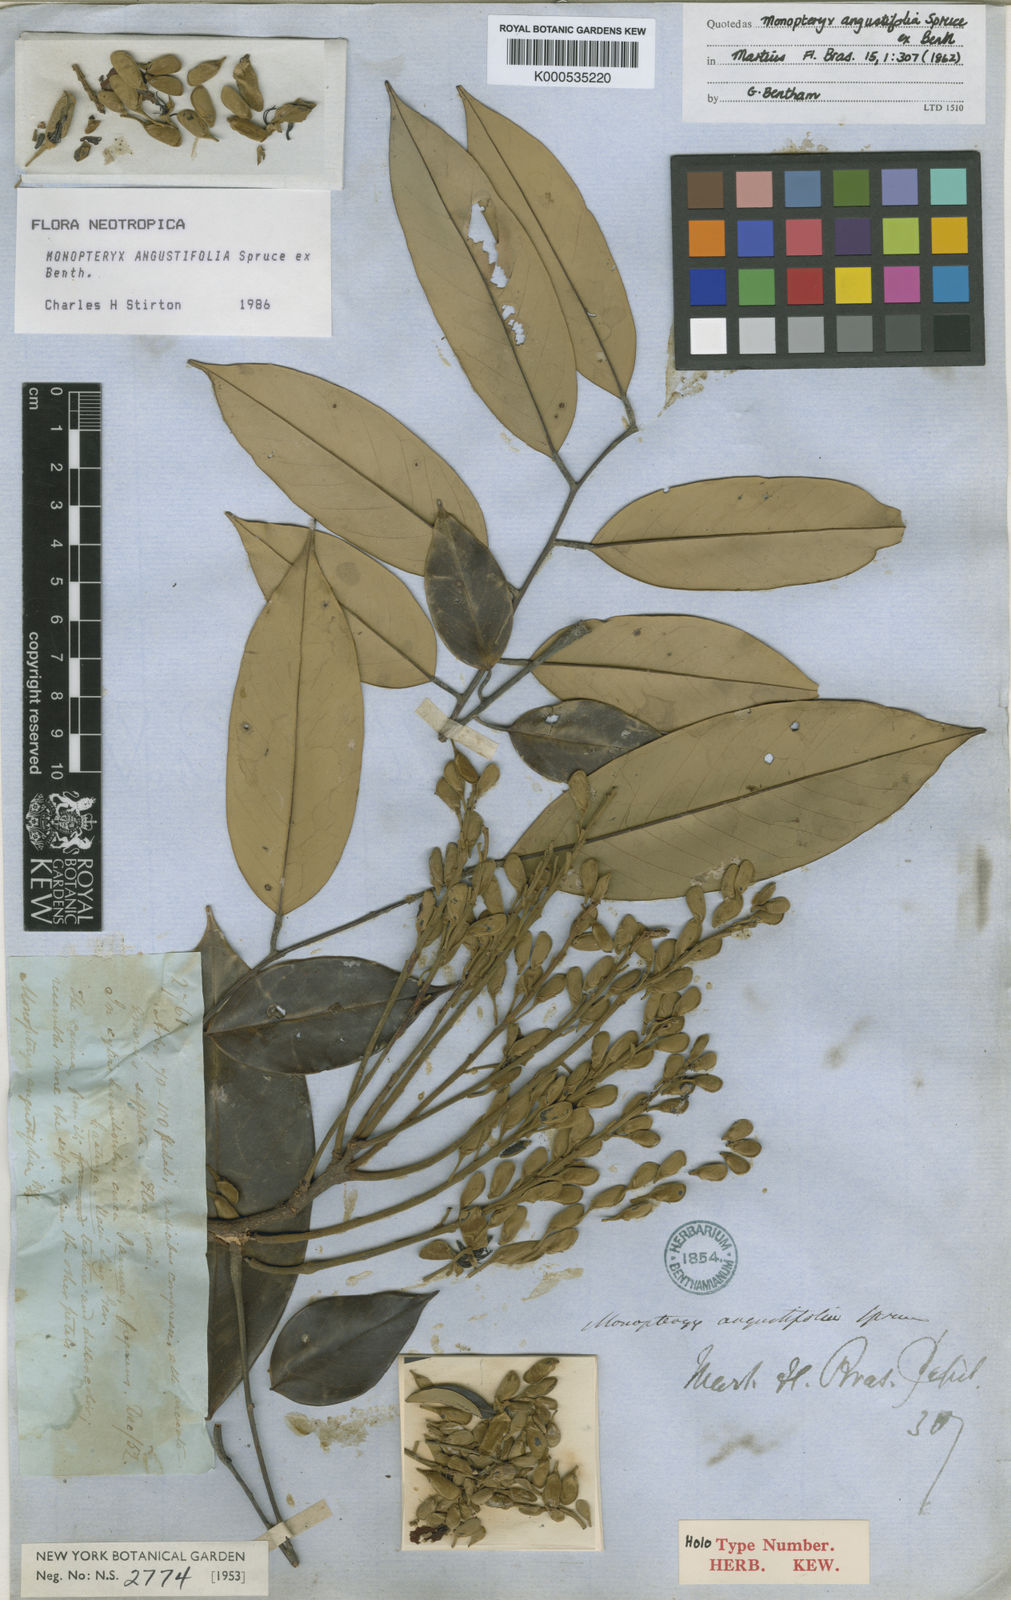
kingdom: Plantae
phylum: Tracheophyta
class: Magnoliopsida
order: Fabales
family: Fabaceae
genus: Monopteryx
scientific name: Monopteryx angustifolia
